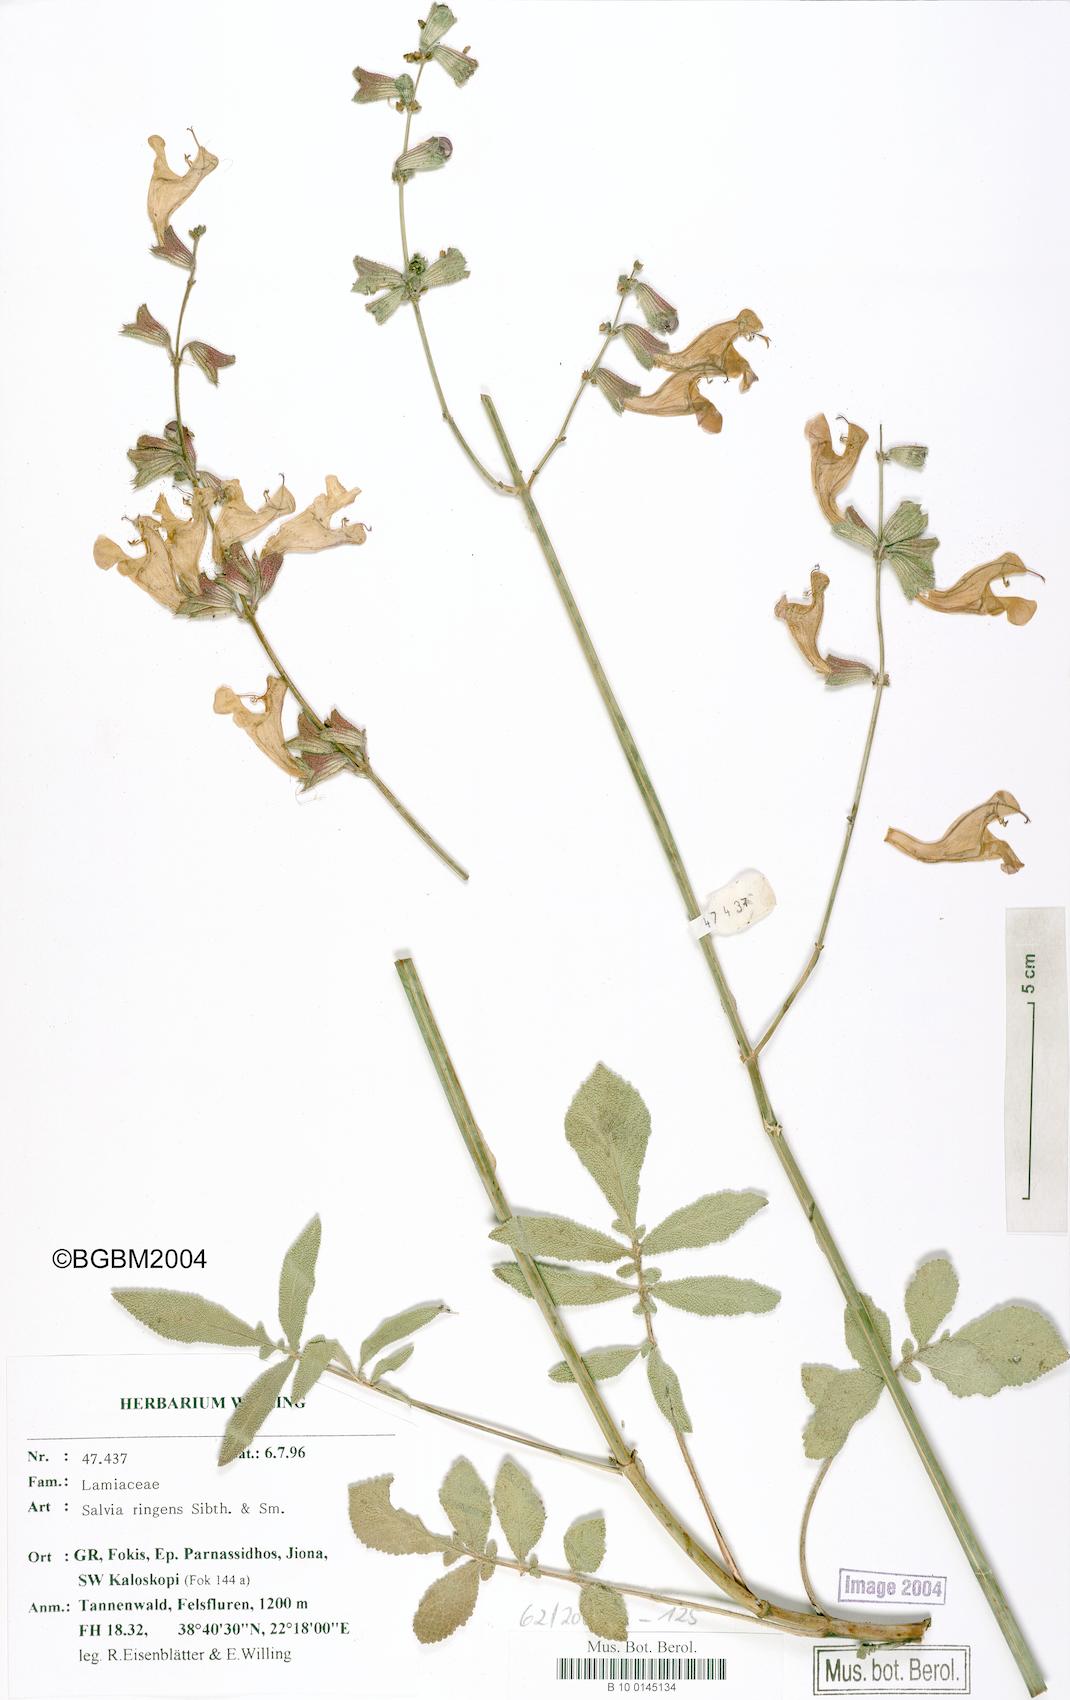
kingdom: Plantae
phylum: Tracheophyta
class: Magnoliopsida
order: Lamiales
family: Lamiaceae
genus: Salvia
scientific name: Salvia ringens
